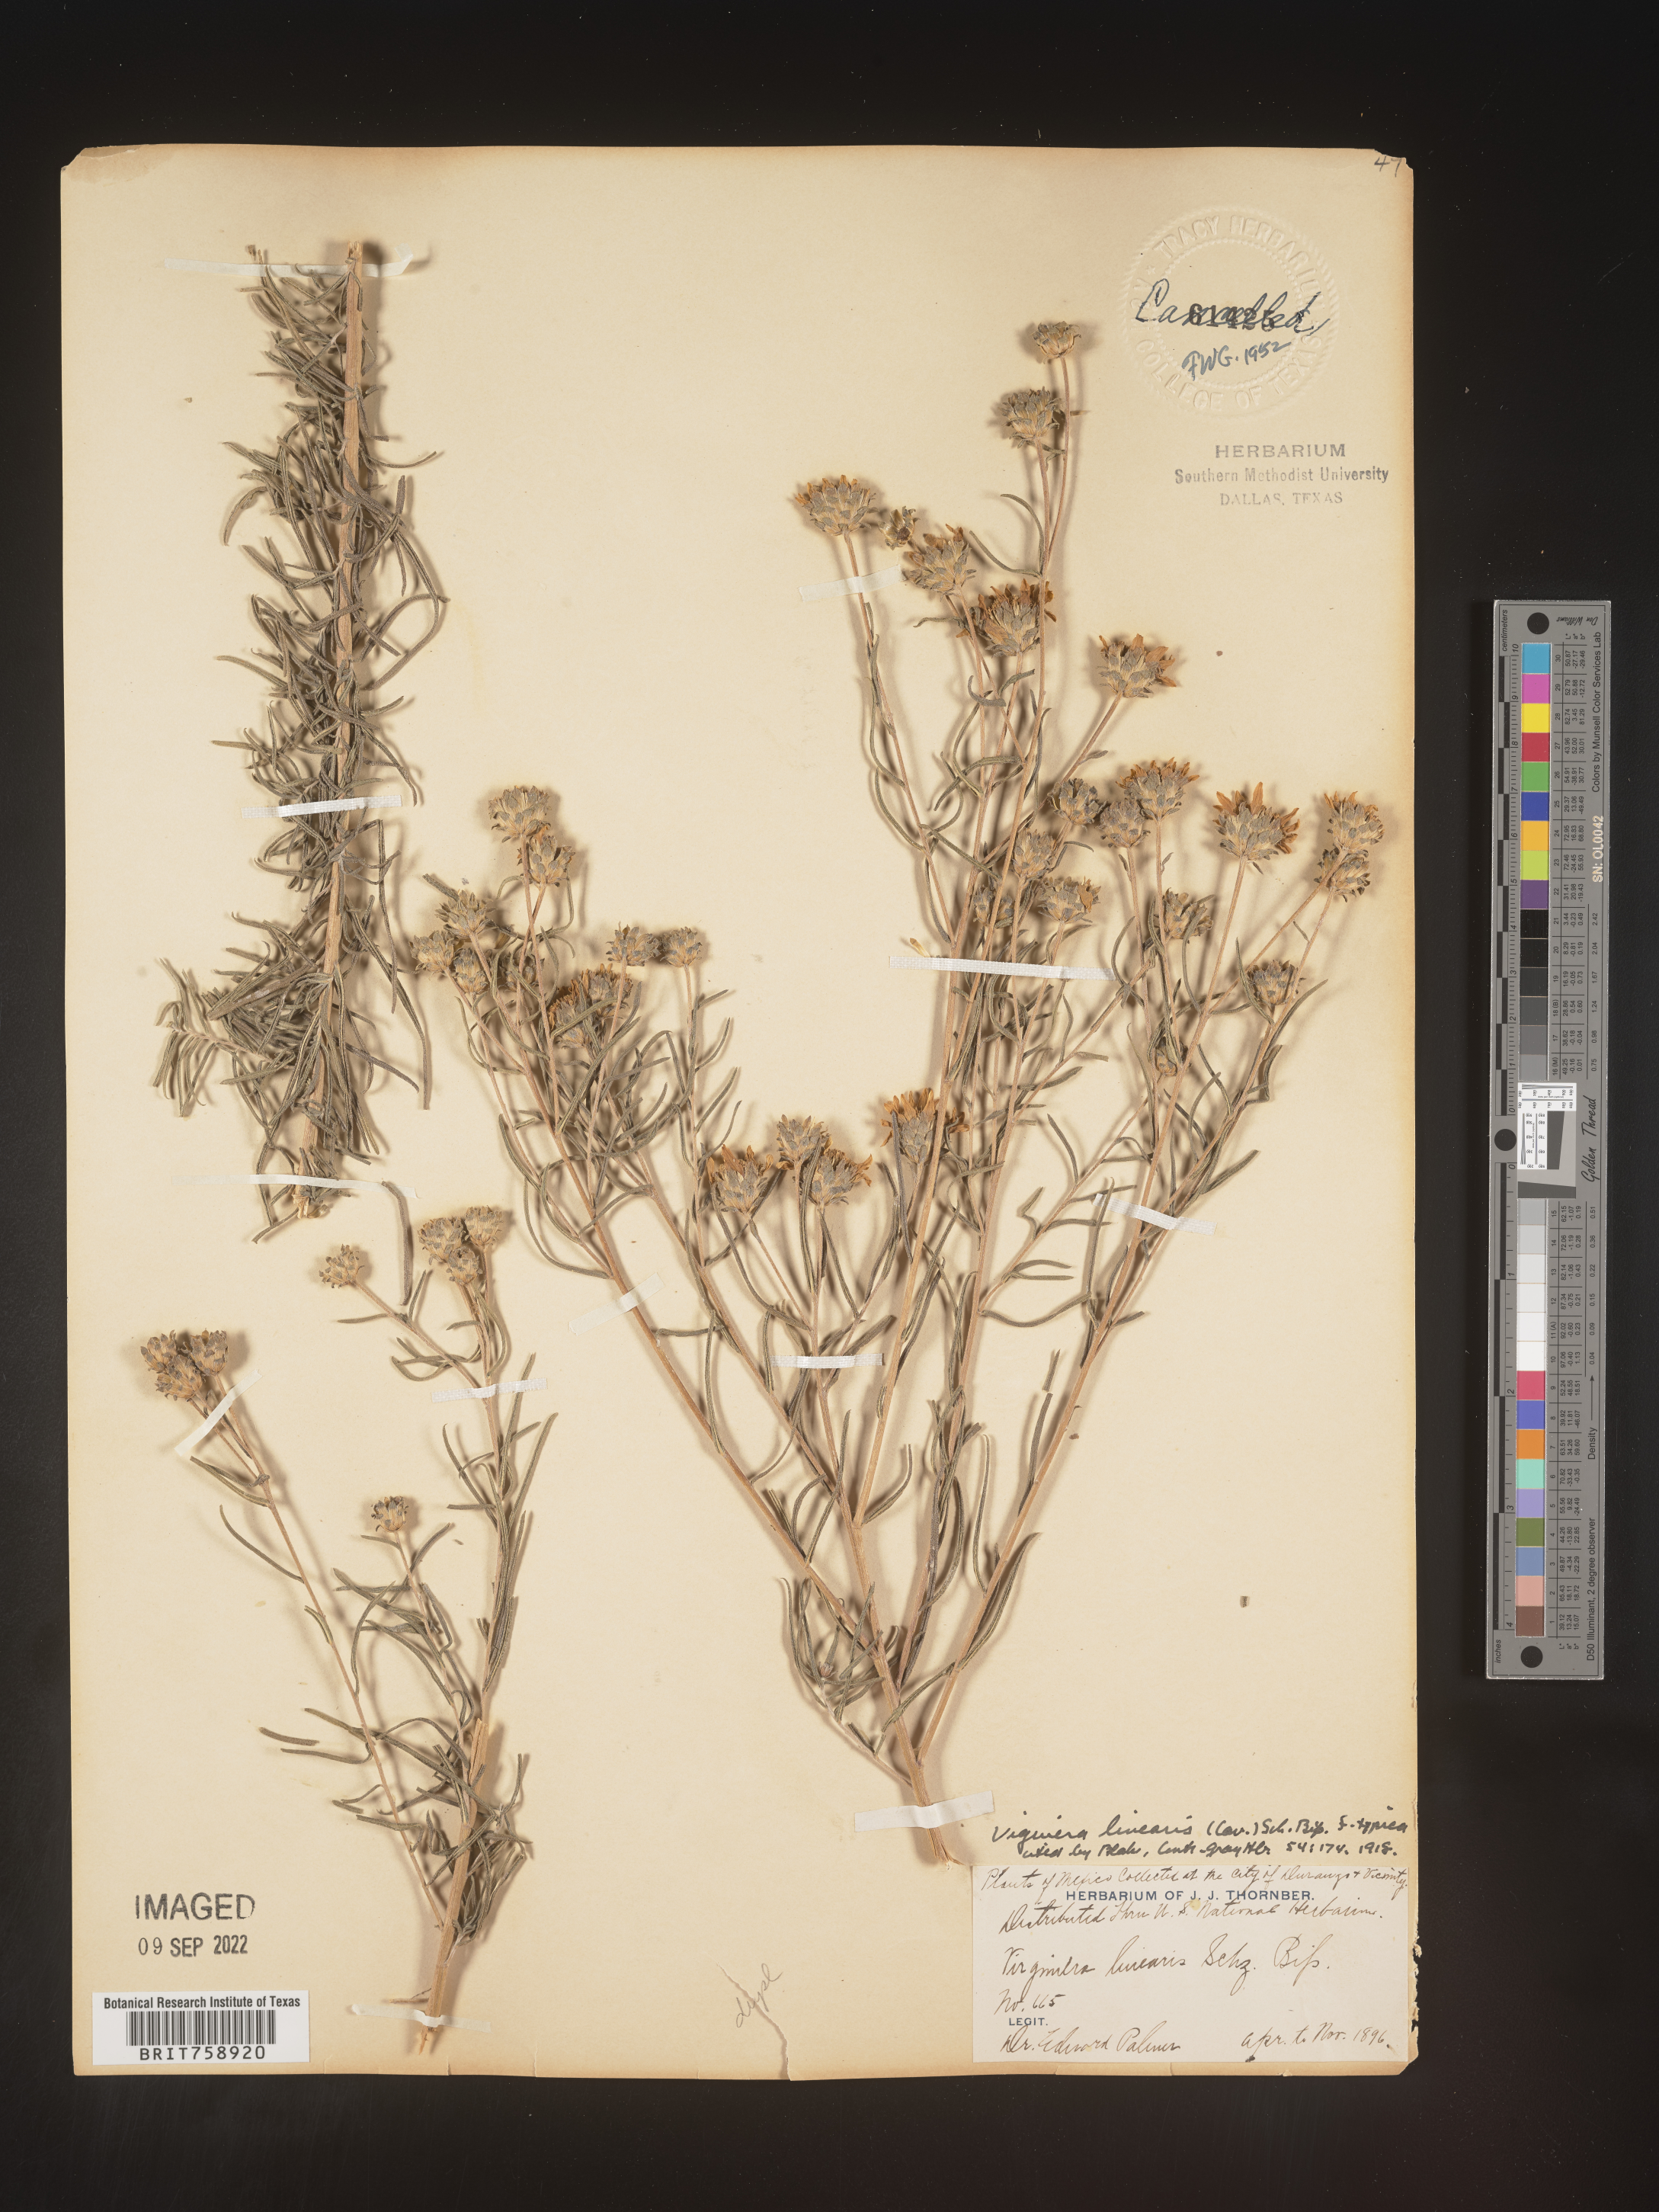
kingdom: Plantae
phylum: Tracheophyta
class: Magnoliopsida
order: Asterales
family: Asteraceae
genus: Viguiera
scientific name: Viguiera
